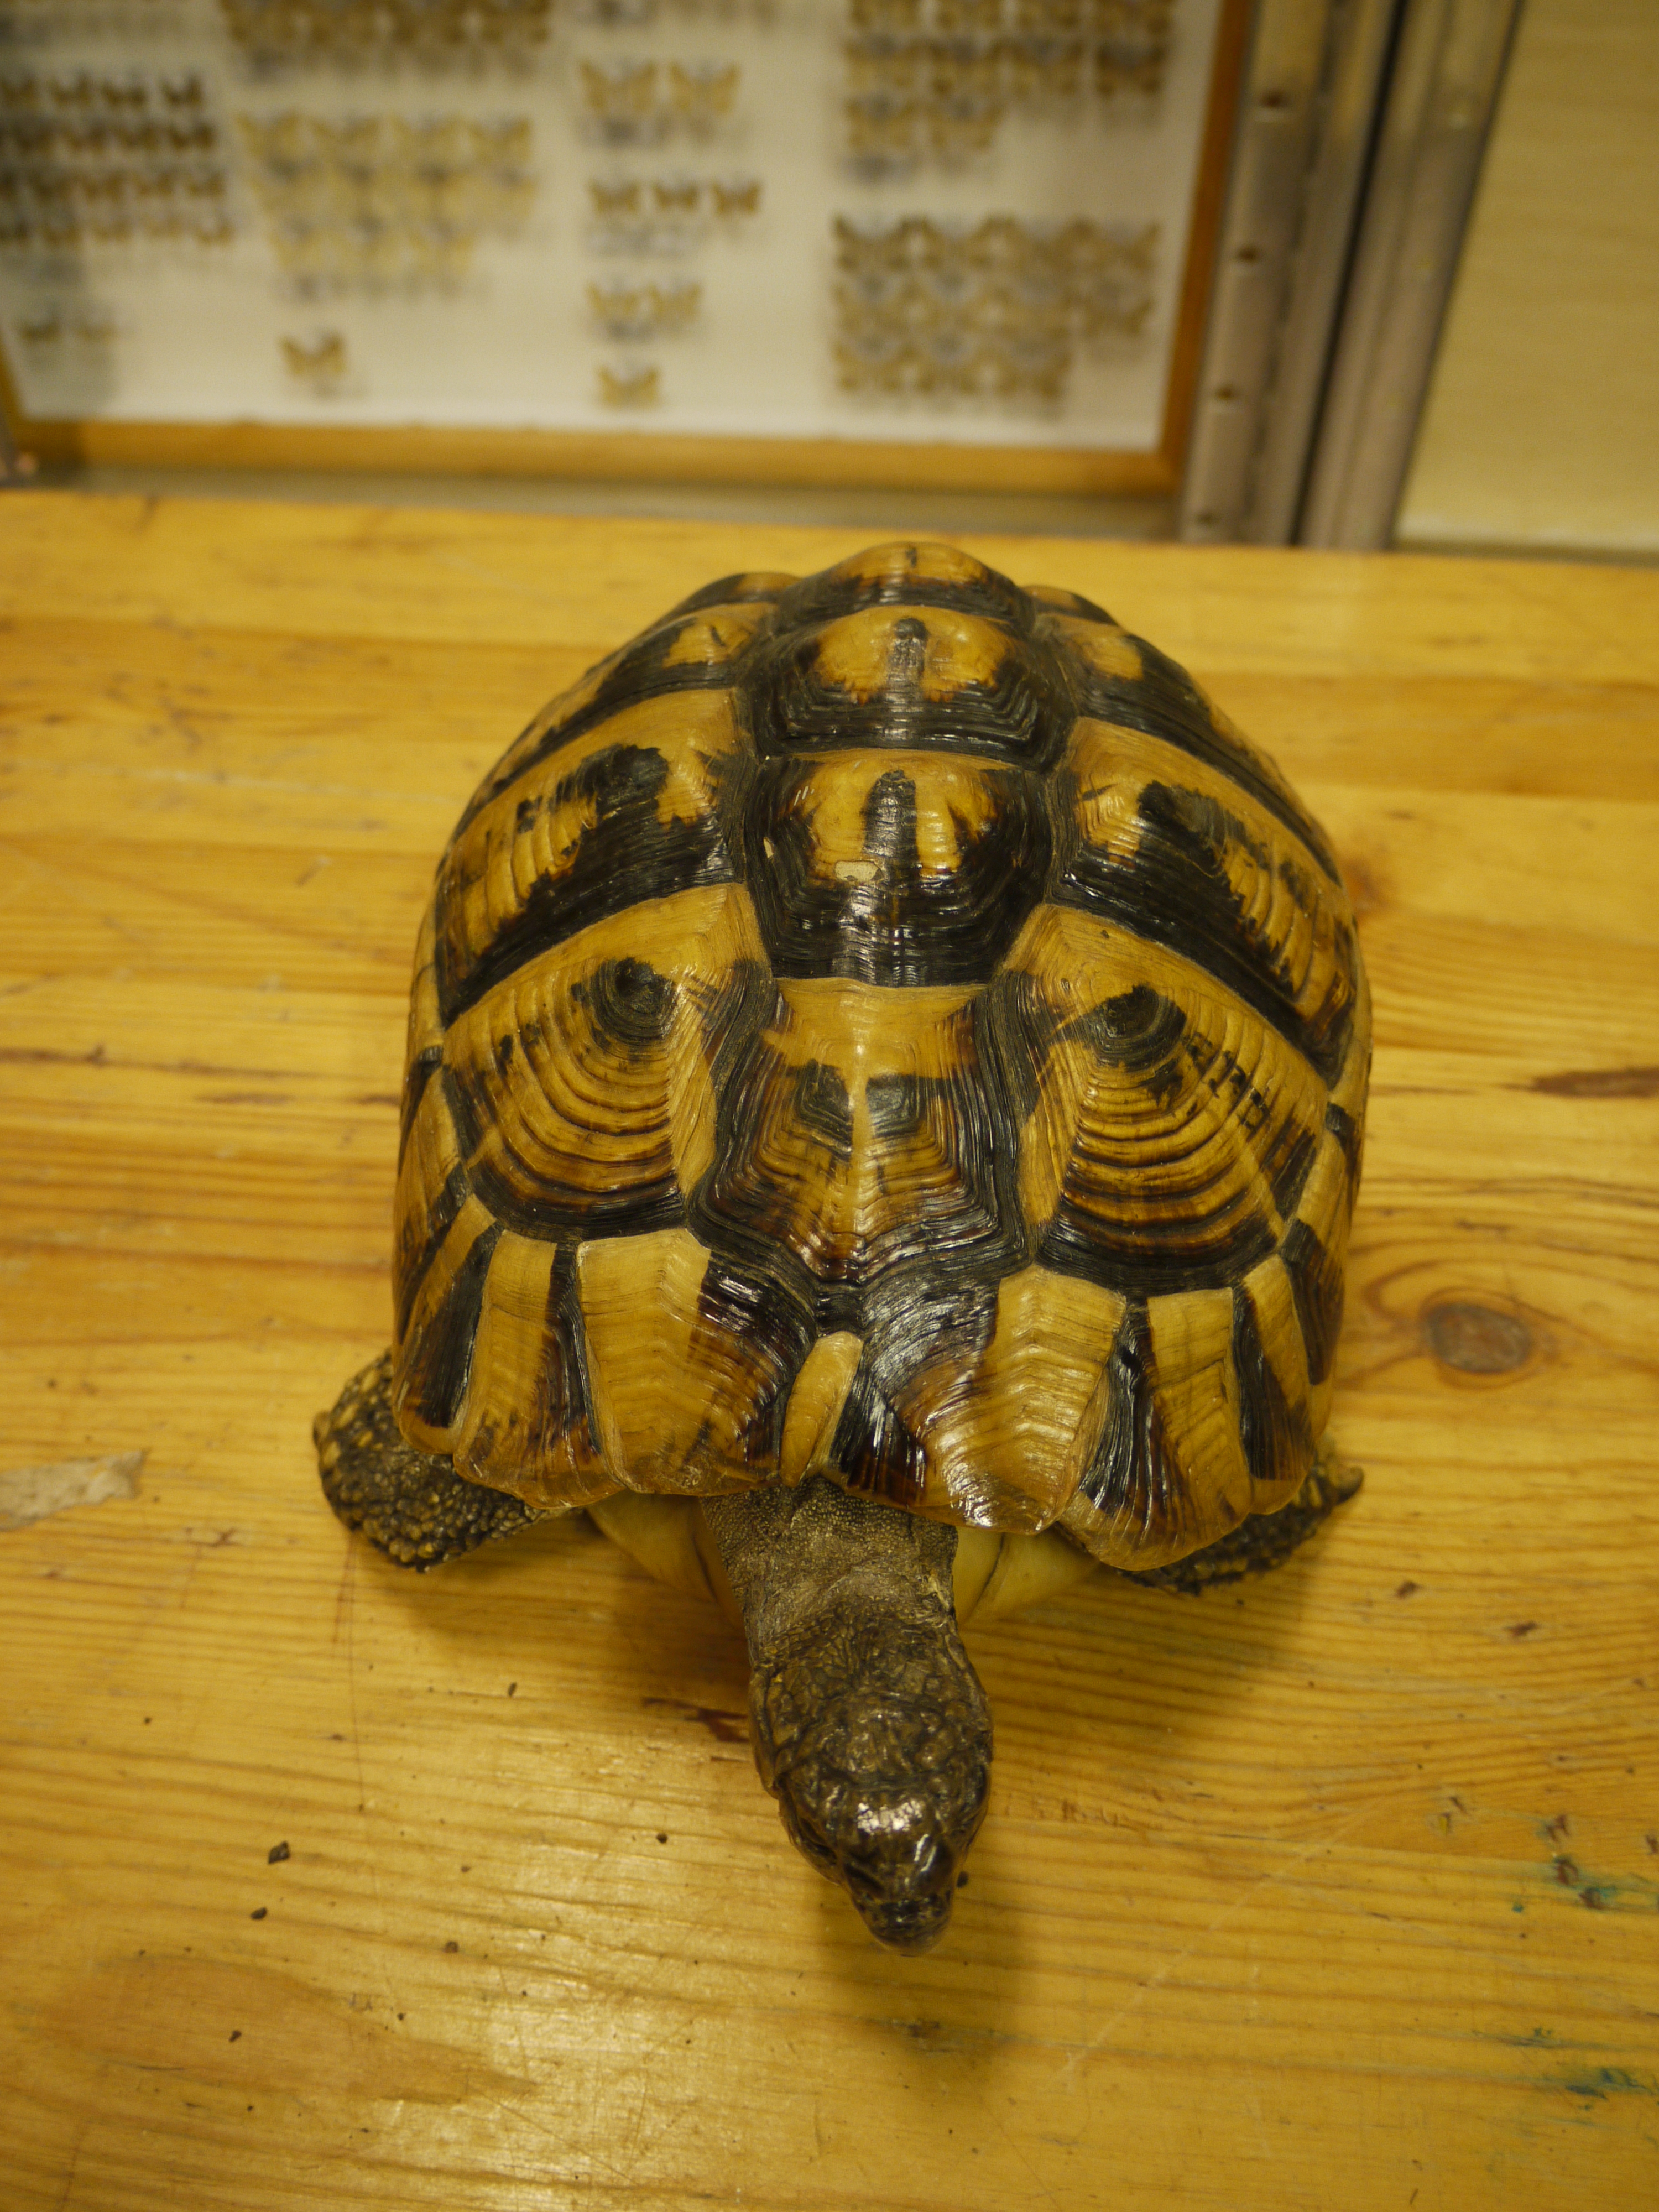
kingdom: Animalia
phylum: Chordata
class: Testudines
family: Testudinidae
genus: Testudo
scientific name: Testudo hermanni
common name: Hermann's tortoise
